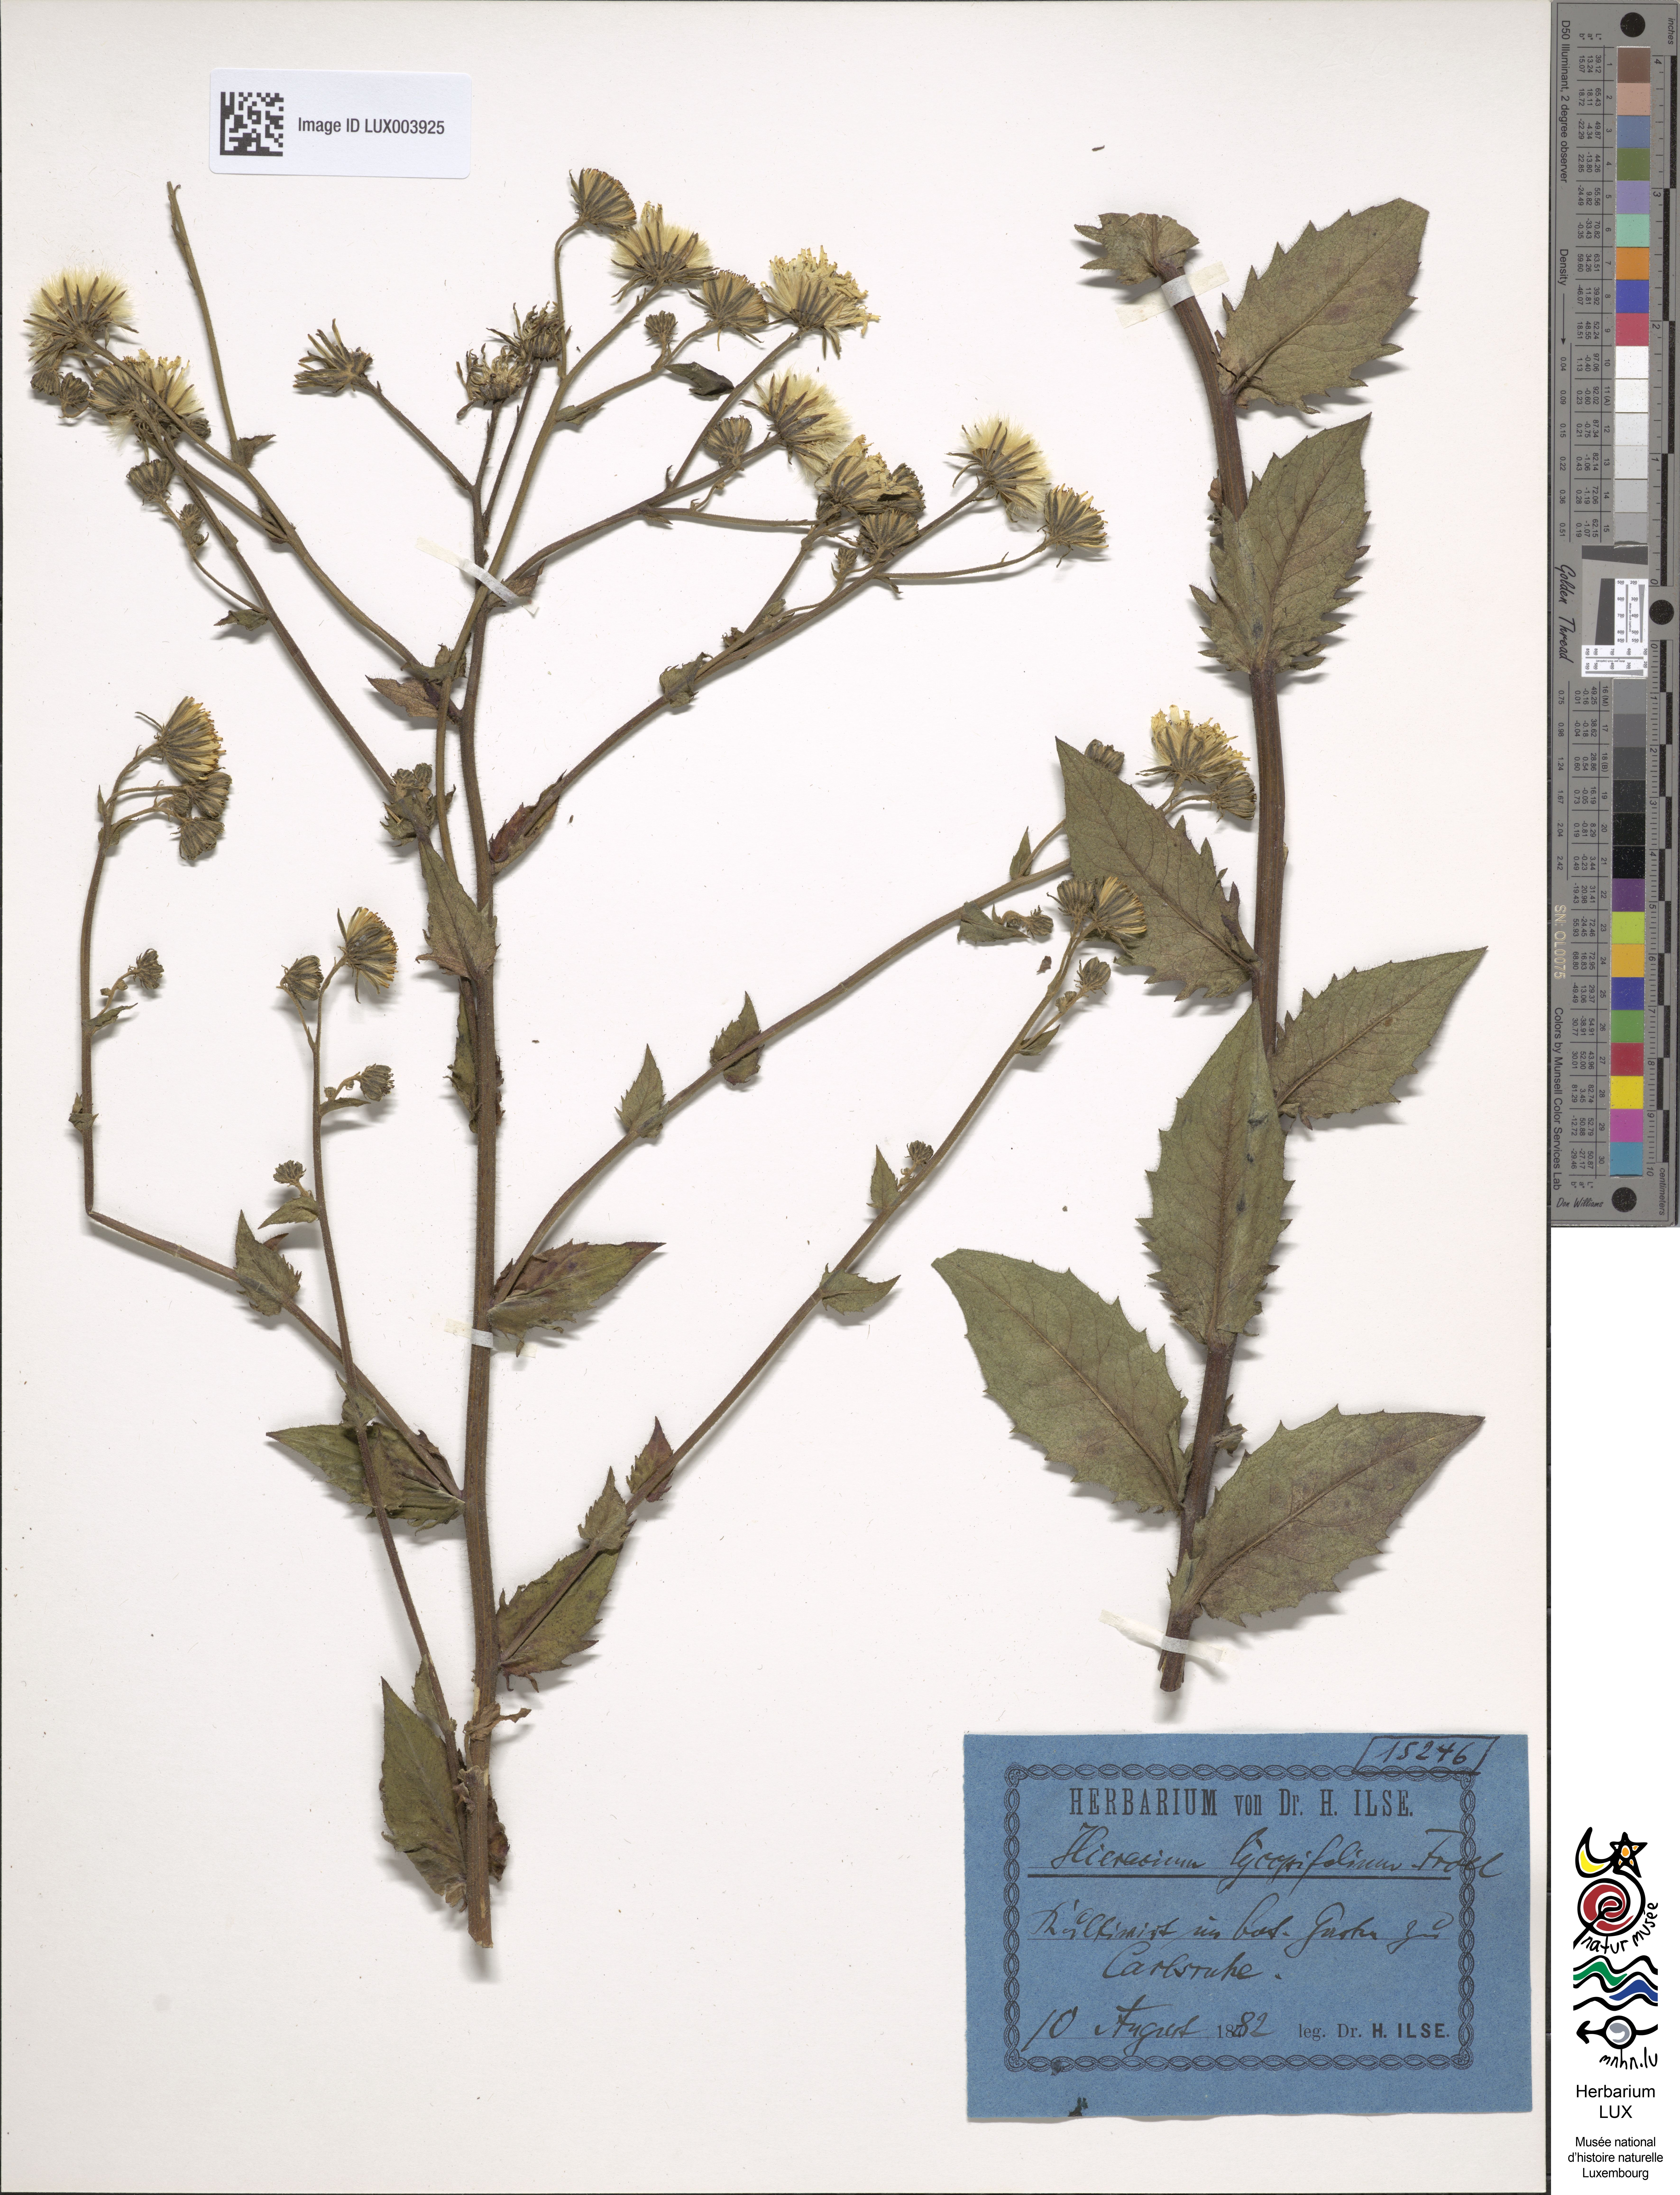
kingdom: Plantae
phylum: Tracheophyta
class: Magnoliopsida
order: Asterales
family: Asteraceae
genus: Hieracium
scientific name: Hieracium lycopsifolium
